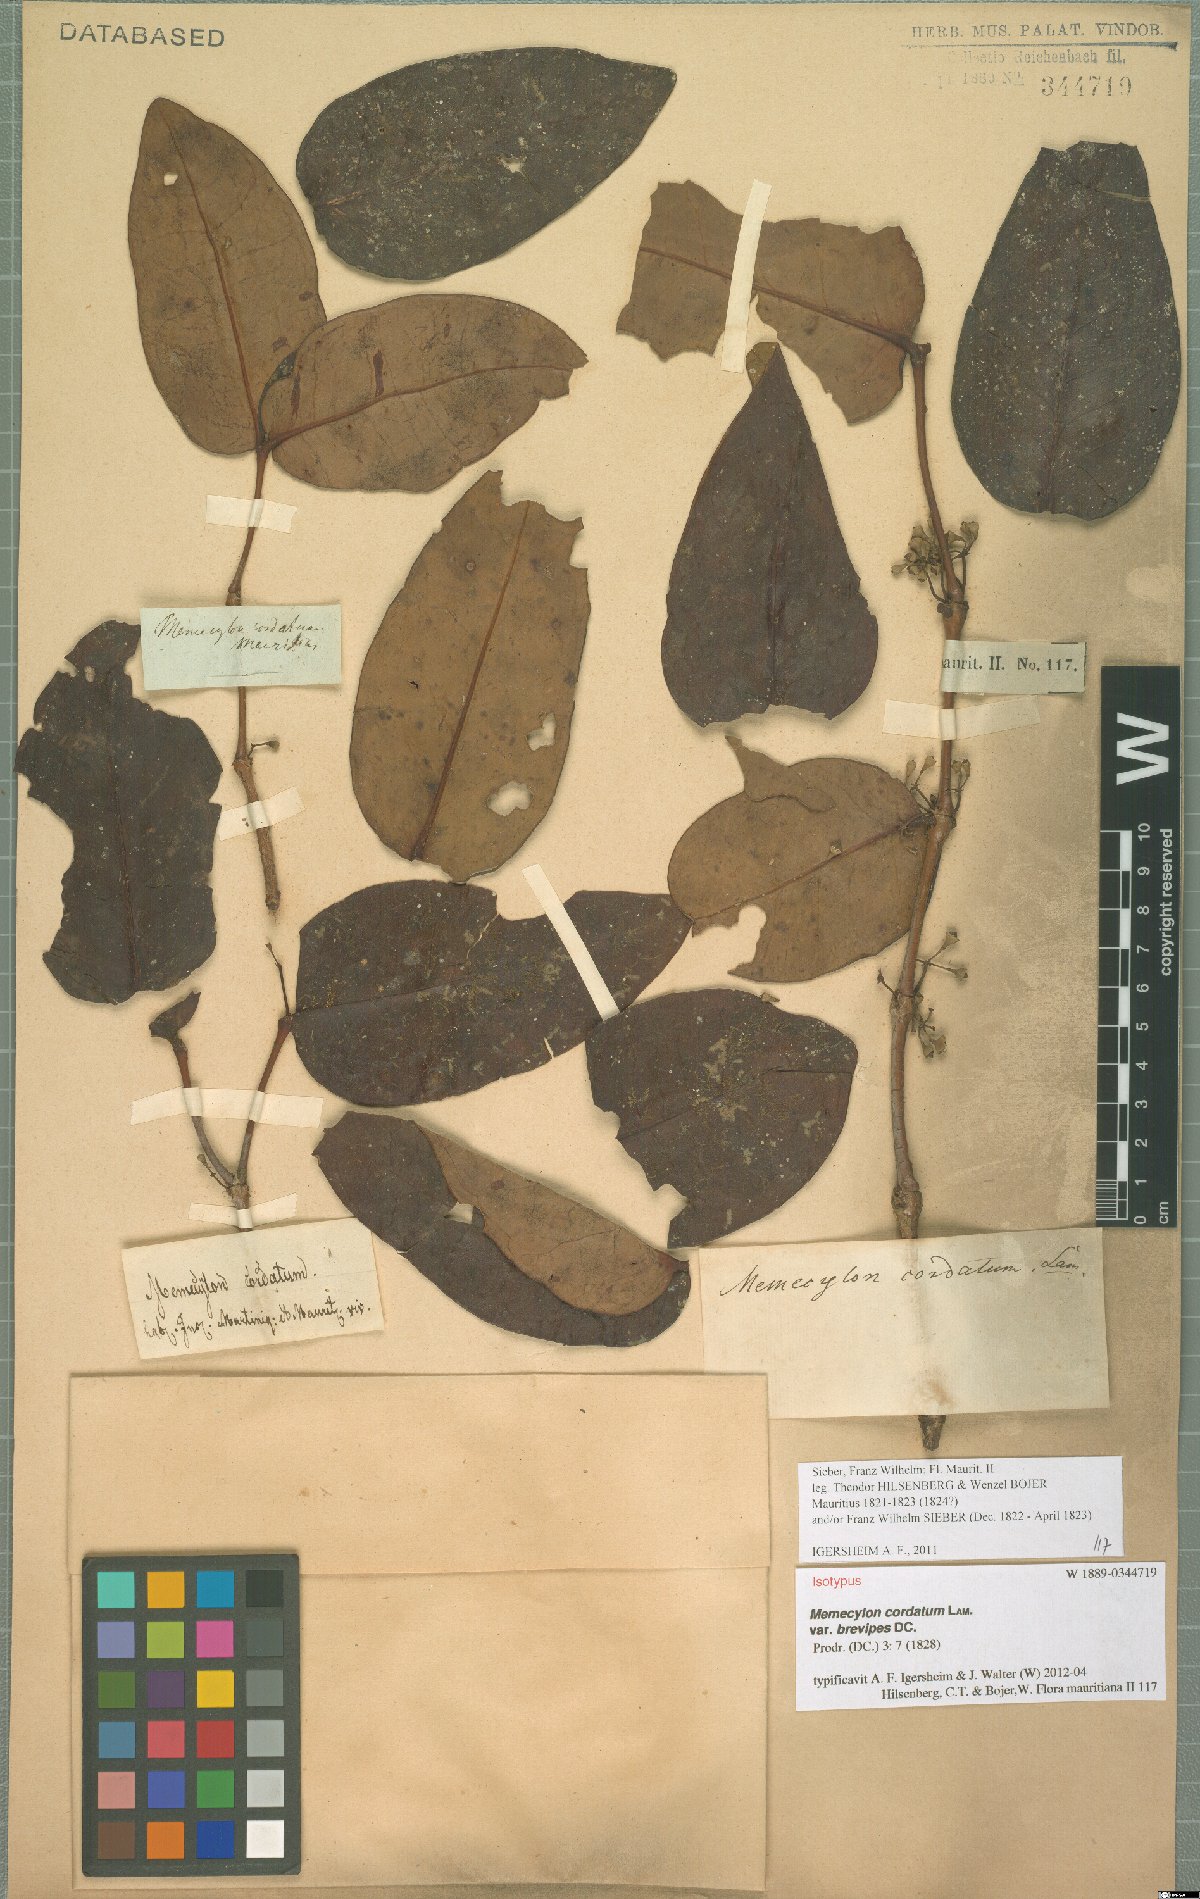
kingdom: Plantae
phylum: Tracheophyta
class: Magnoliopsida
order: Myrtales
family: Melastomataceae
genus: Memecylon
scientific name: Memecylon cordatum
